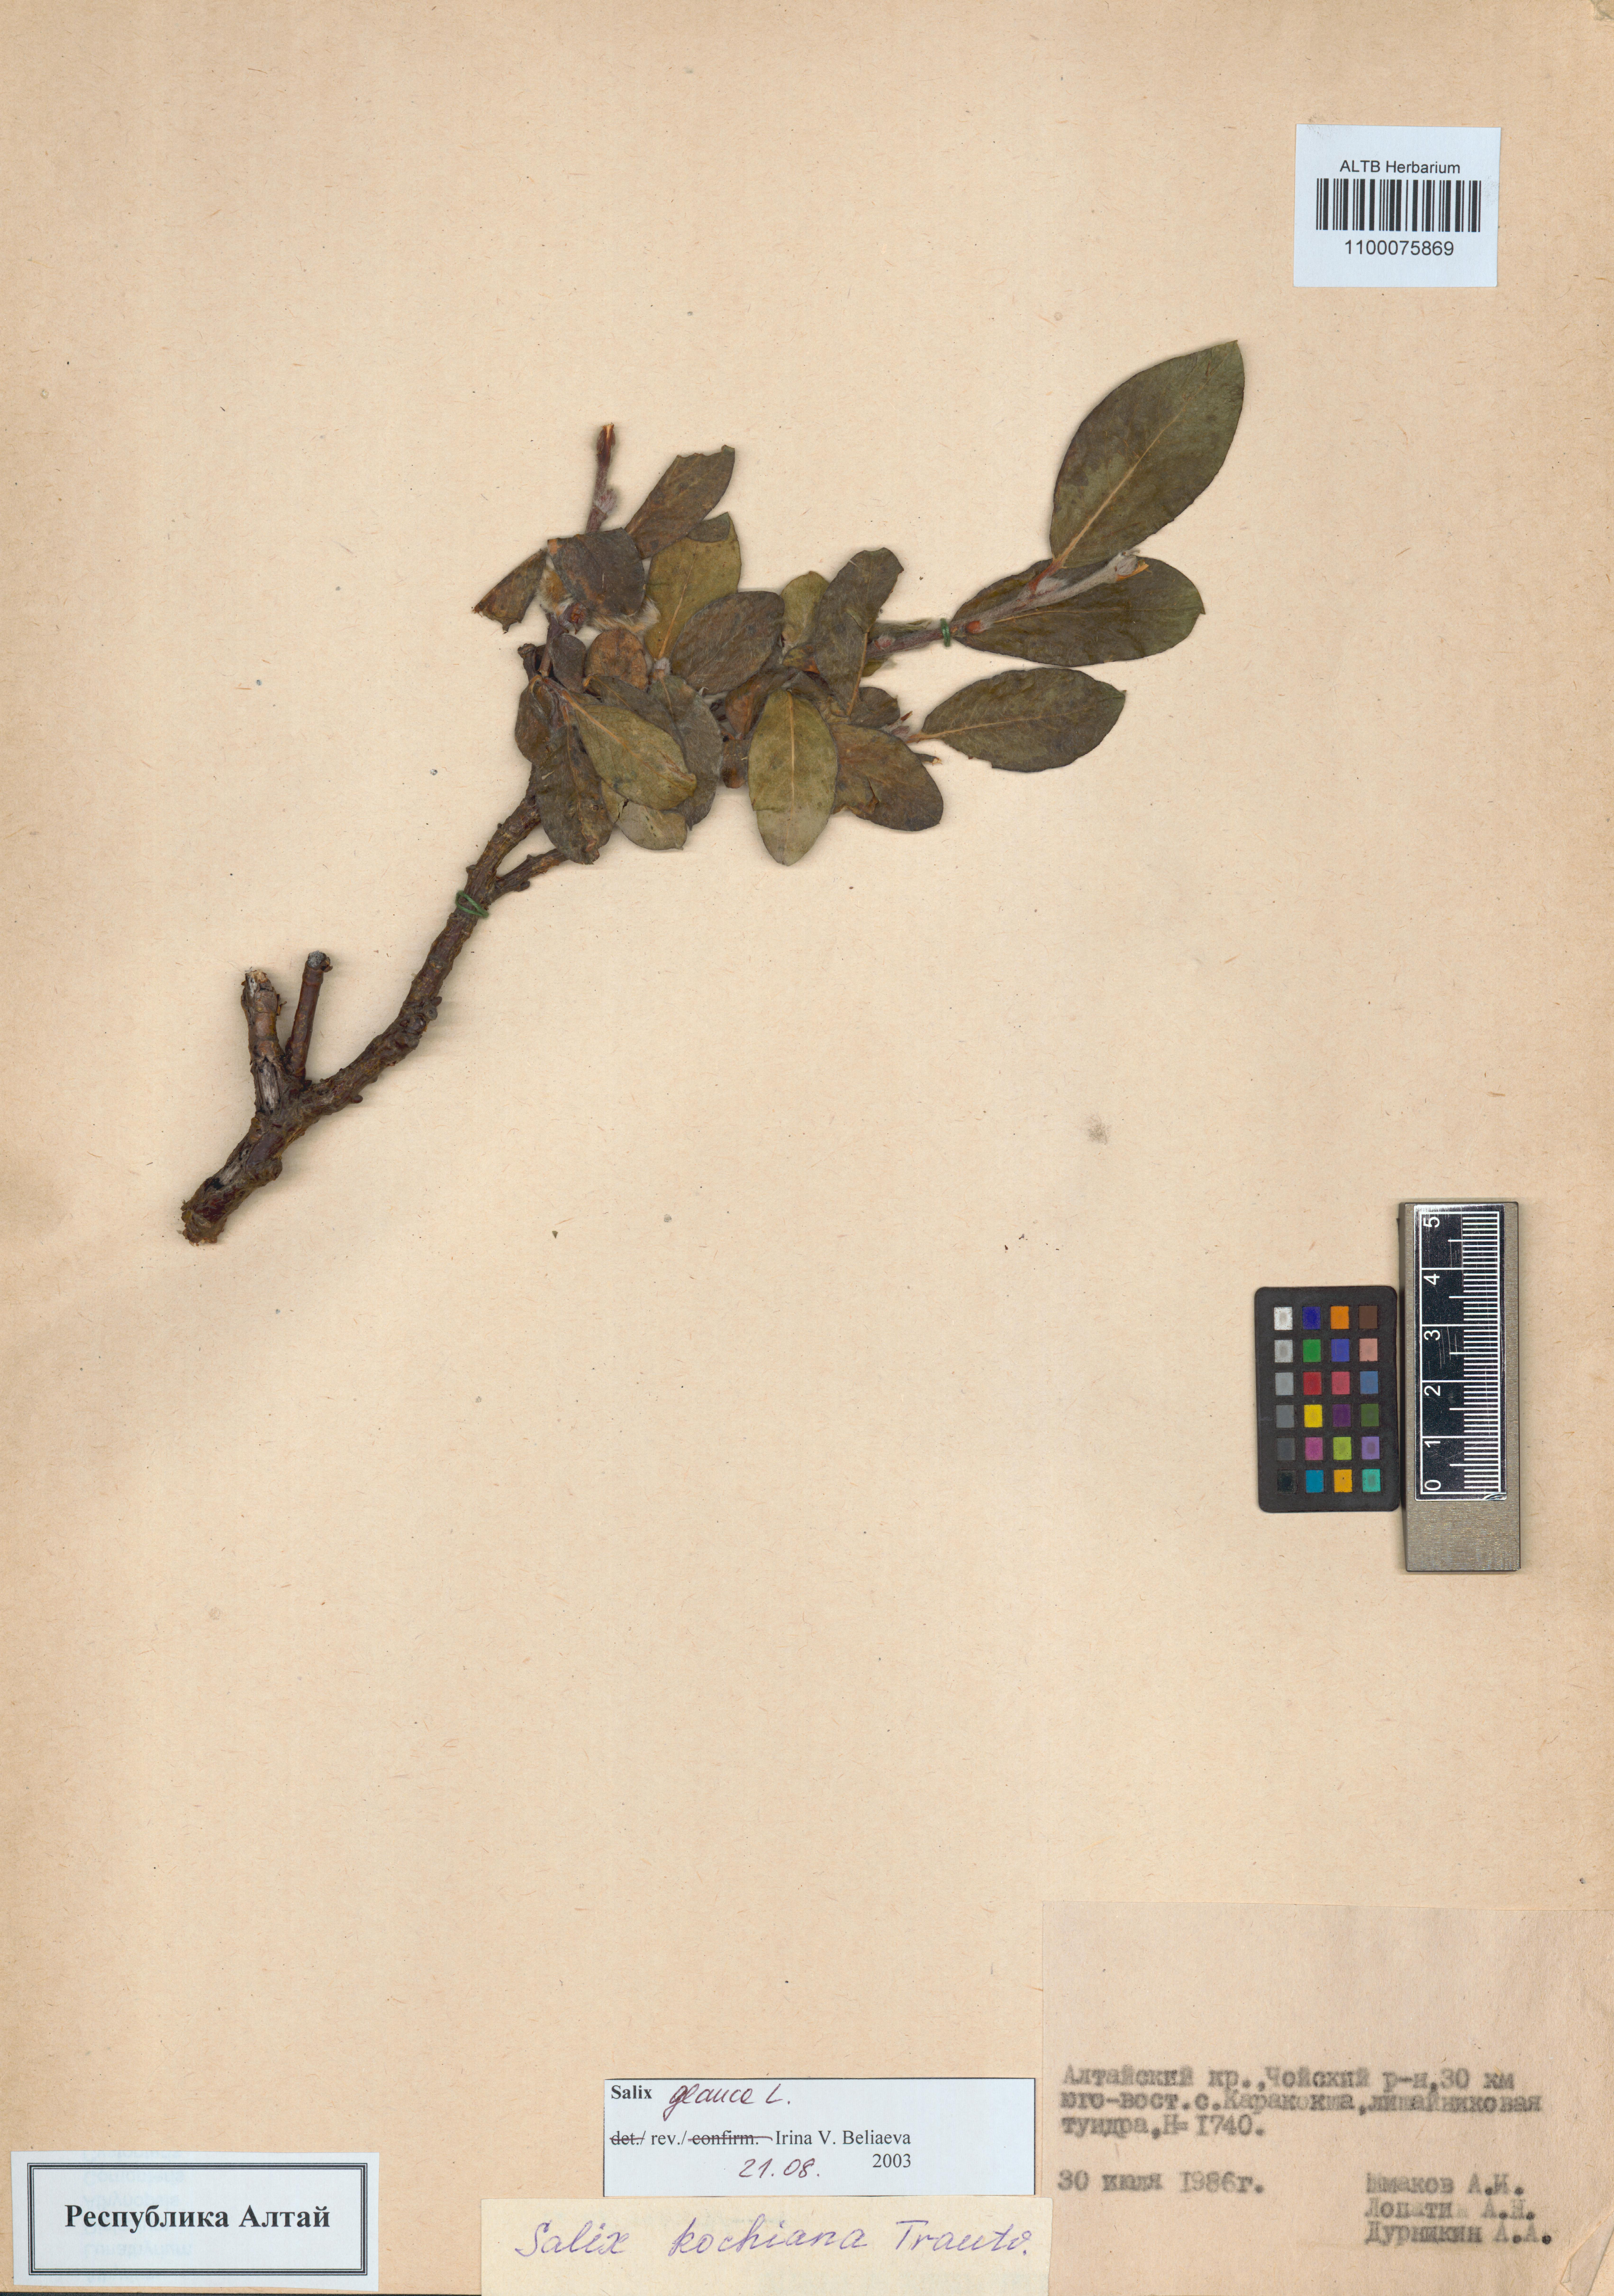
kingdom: Plantae
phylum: Tracheophyta
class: Magnoliopsida
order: Malpighiales
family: Salicaceae
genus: Salix
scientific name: Salix glauca
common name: Glaucous willow
